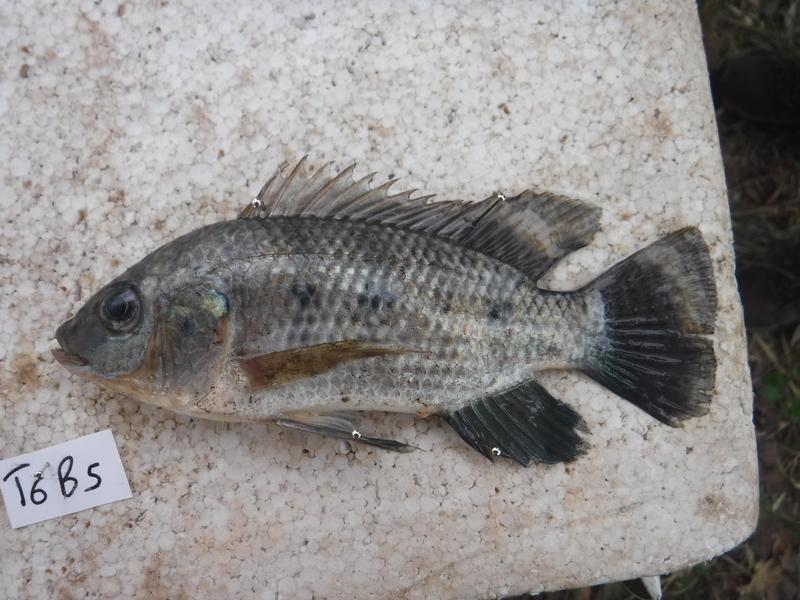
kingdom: Animalia
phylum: Chordata
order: Perciformes
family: Cichlidae
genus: Oreochromis
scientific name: Oreochromis urolepis
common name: Wami tilapia
